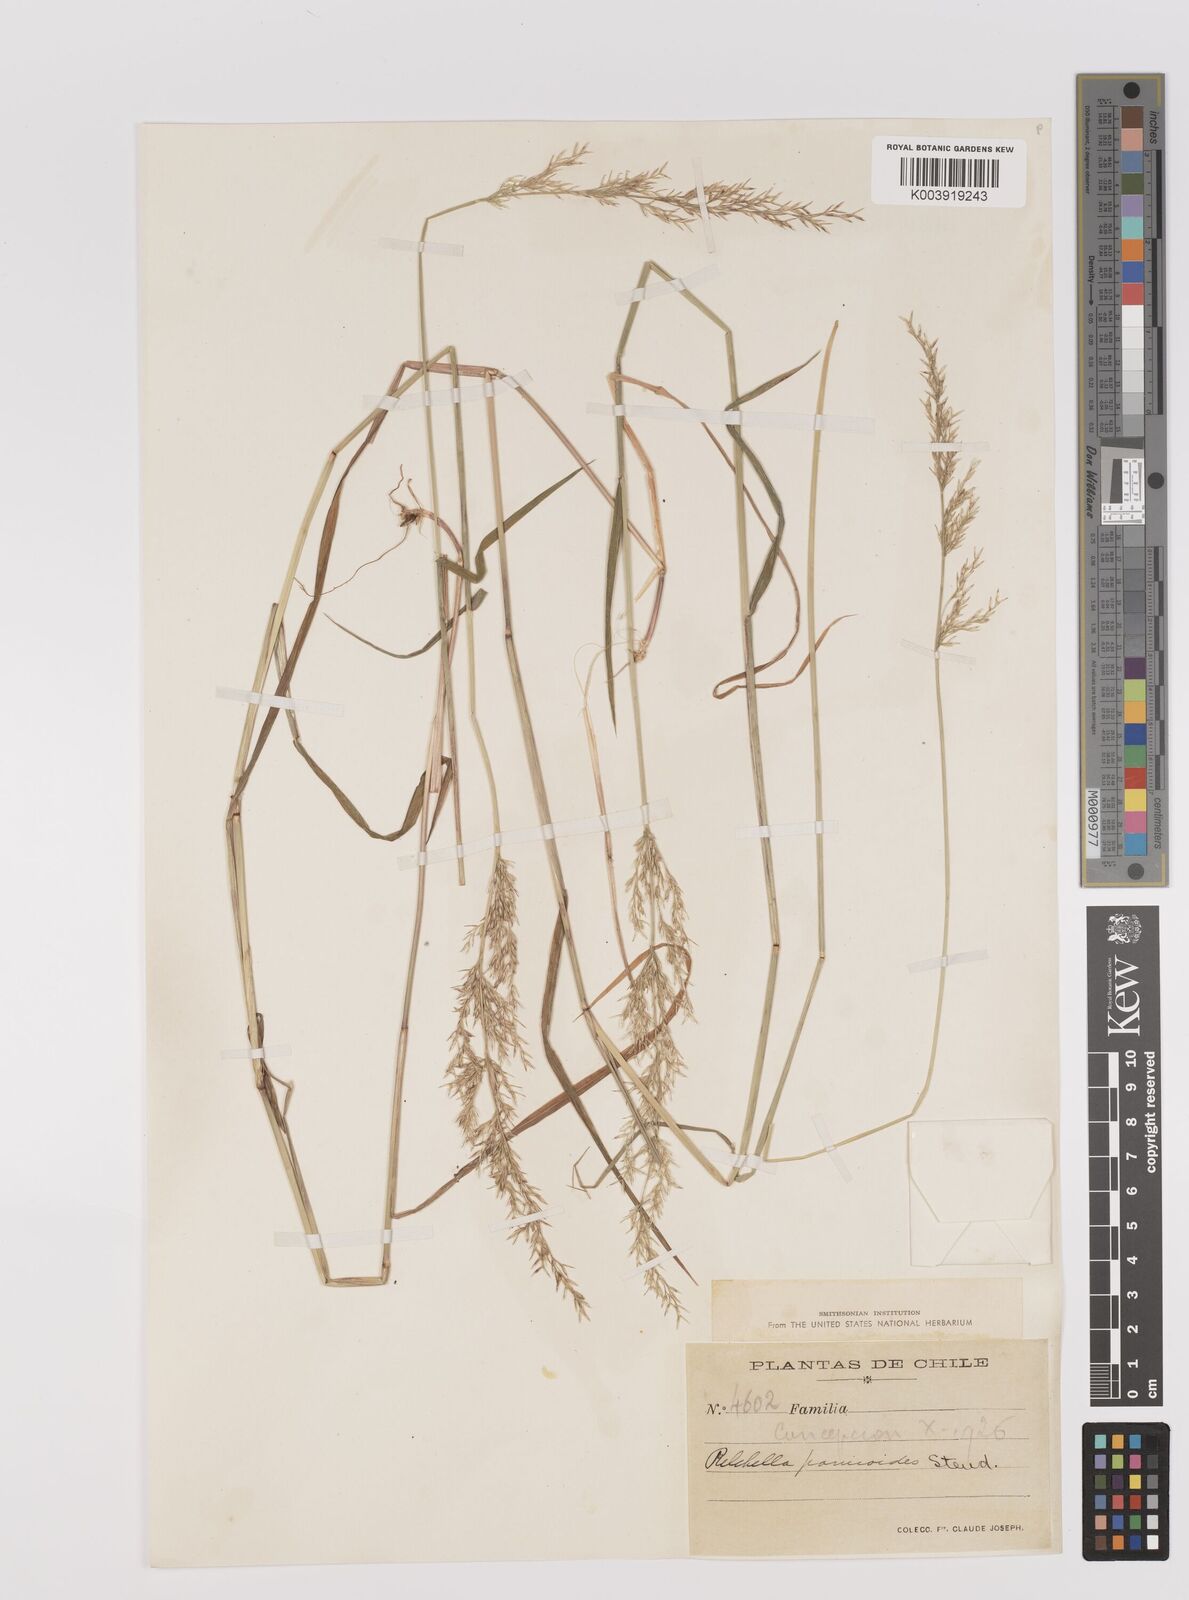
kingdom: Plantae
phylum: Tracheophyta
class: Liliopsida
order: Poales
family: Poaceae
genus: Relchela
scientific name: Relchela panicoides
